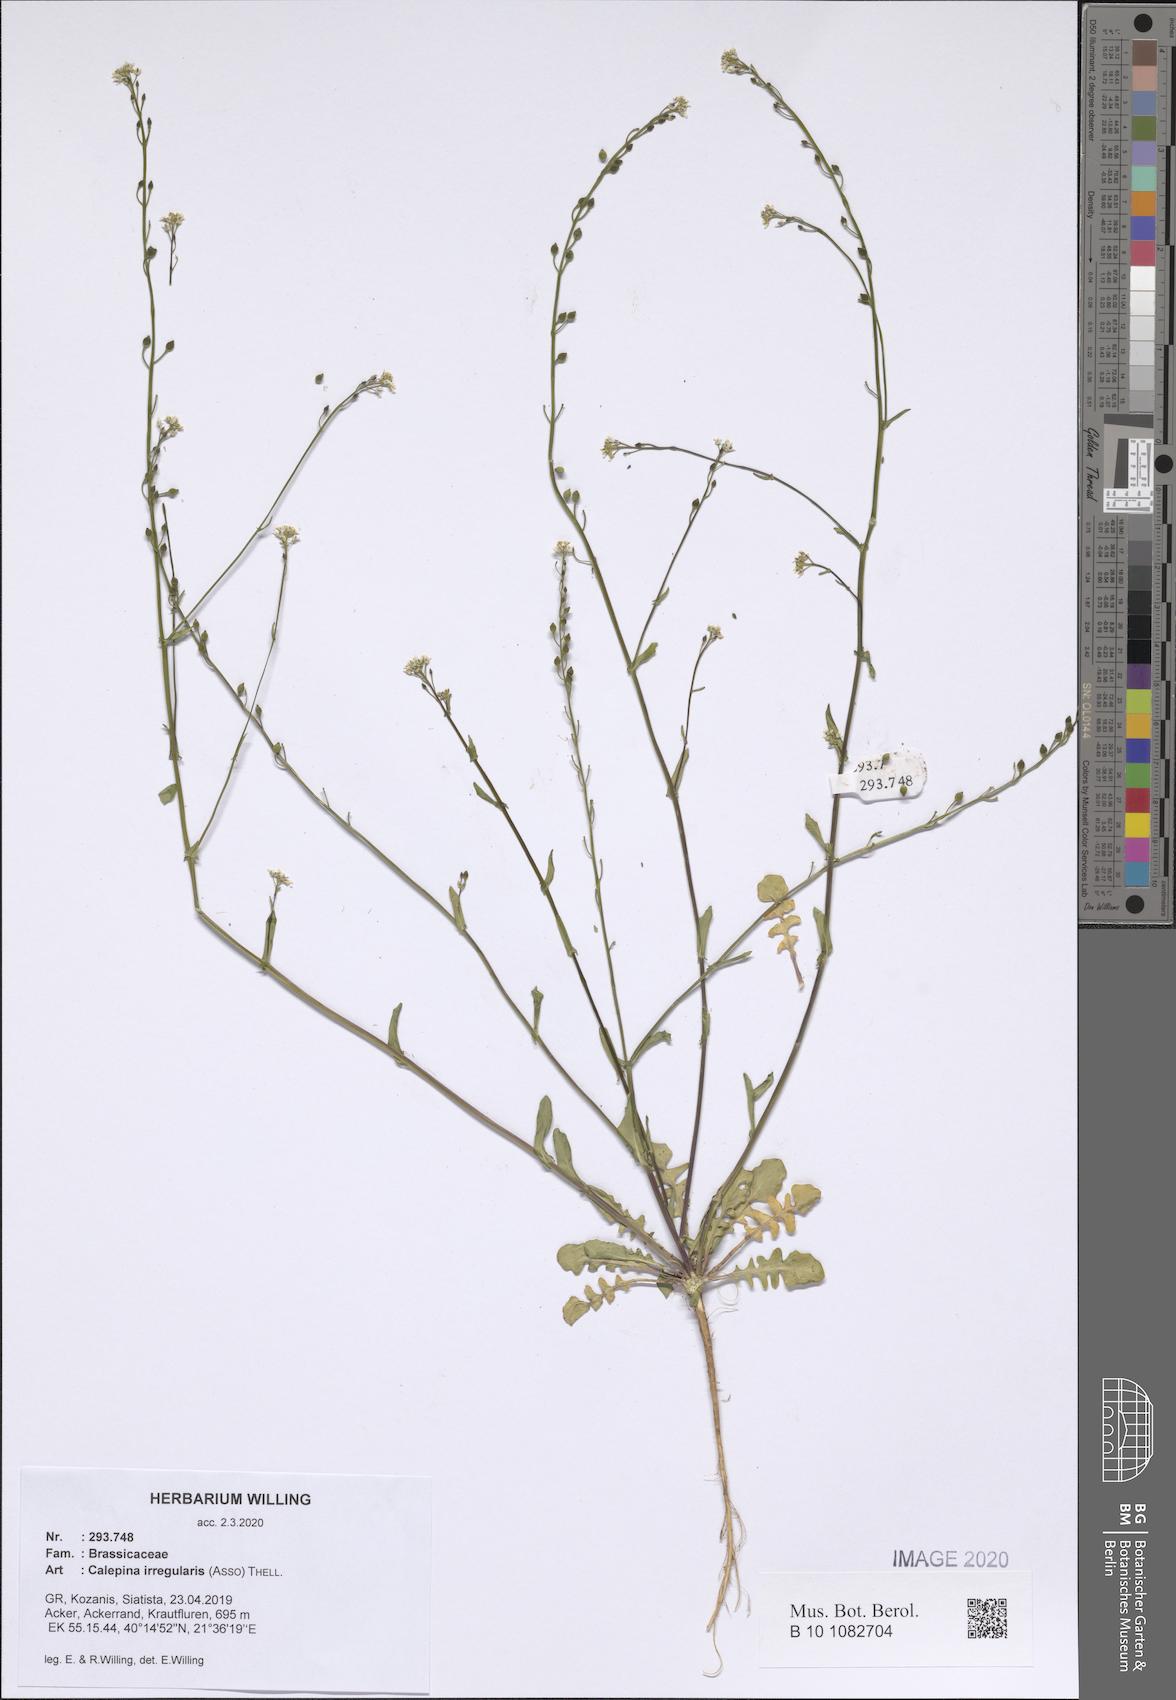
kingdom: Plantae
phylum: Tracheophyta
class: Magnoliopsida
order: Brassicales
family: Brassicaceae
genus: Calepina
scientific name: Calepina irregularis
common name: White ballmustard
